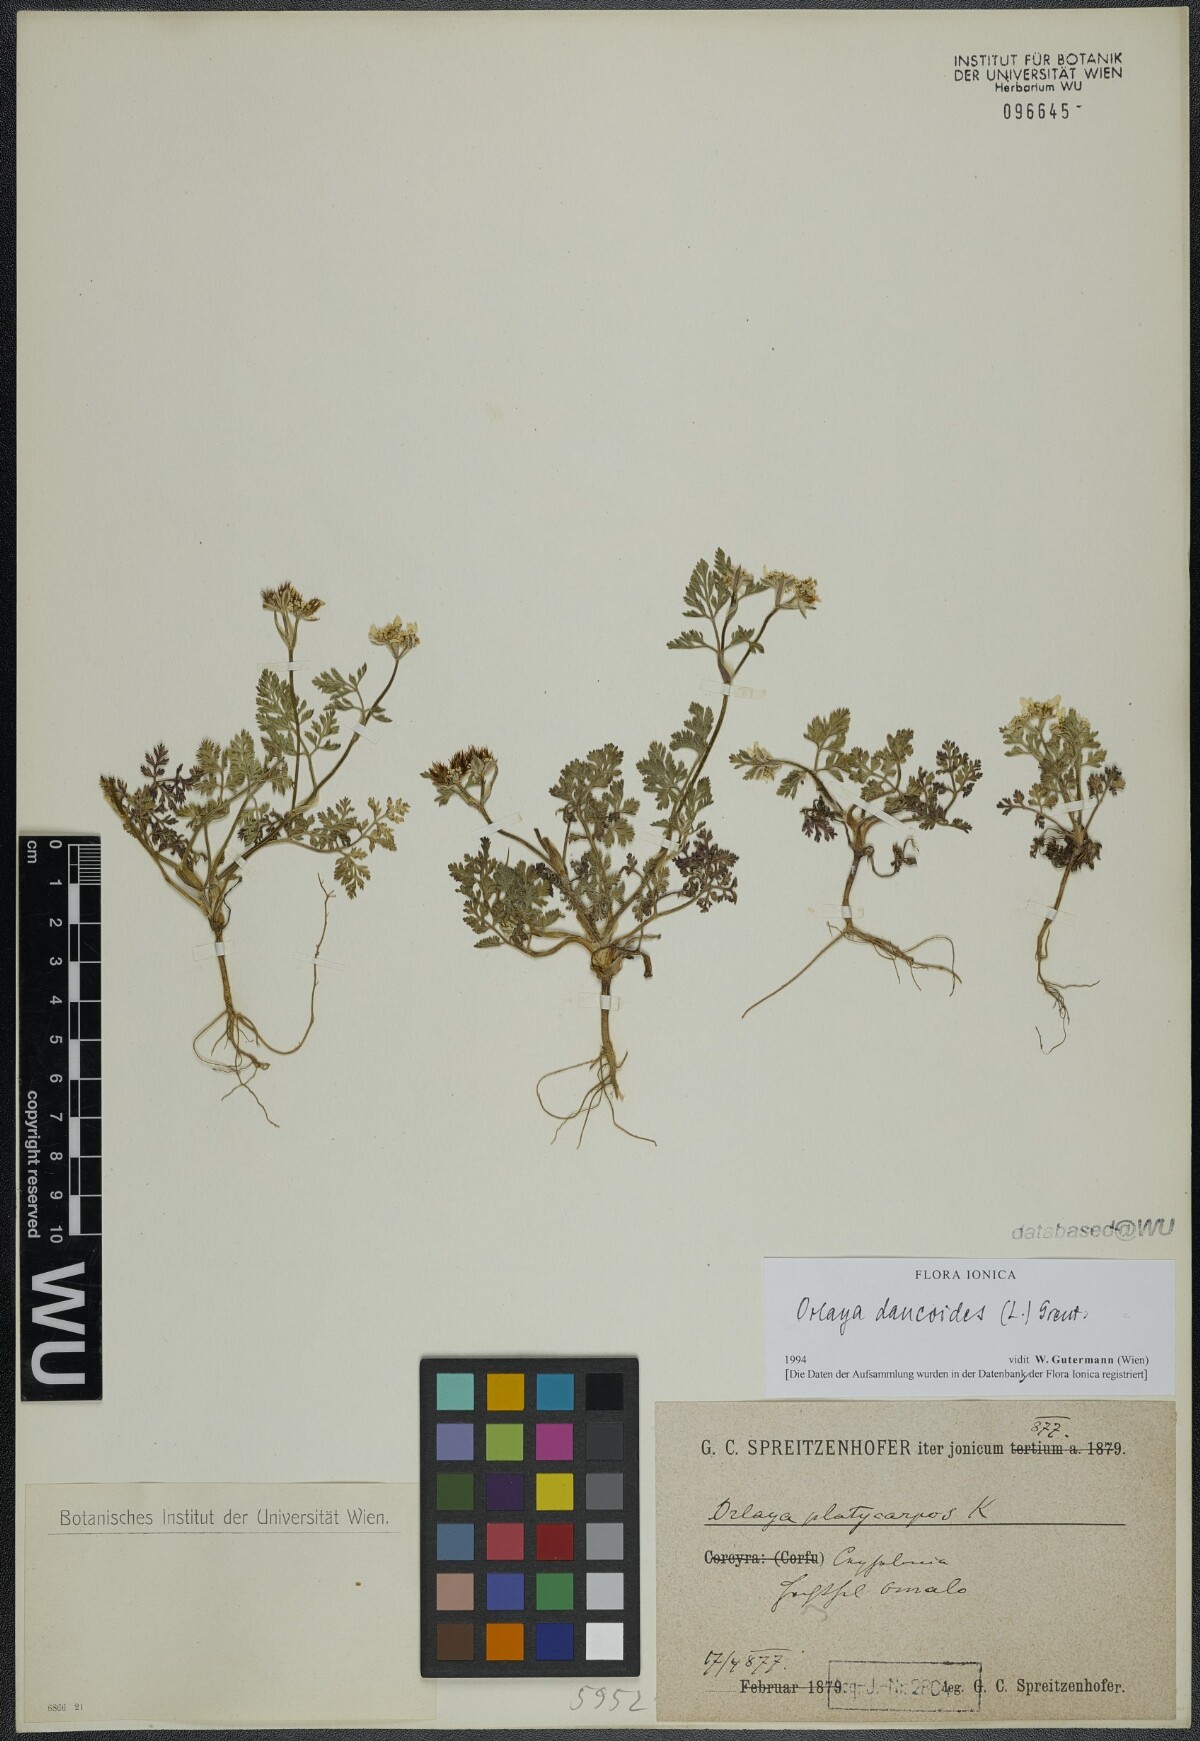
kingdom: Plantae
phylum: Tracheophyta
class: Magnoliopsida
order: Apiales
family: Apiaceae
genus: Orlaya
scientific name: Orlaya daucoides
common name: Flat-fruit orlaya
